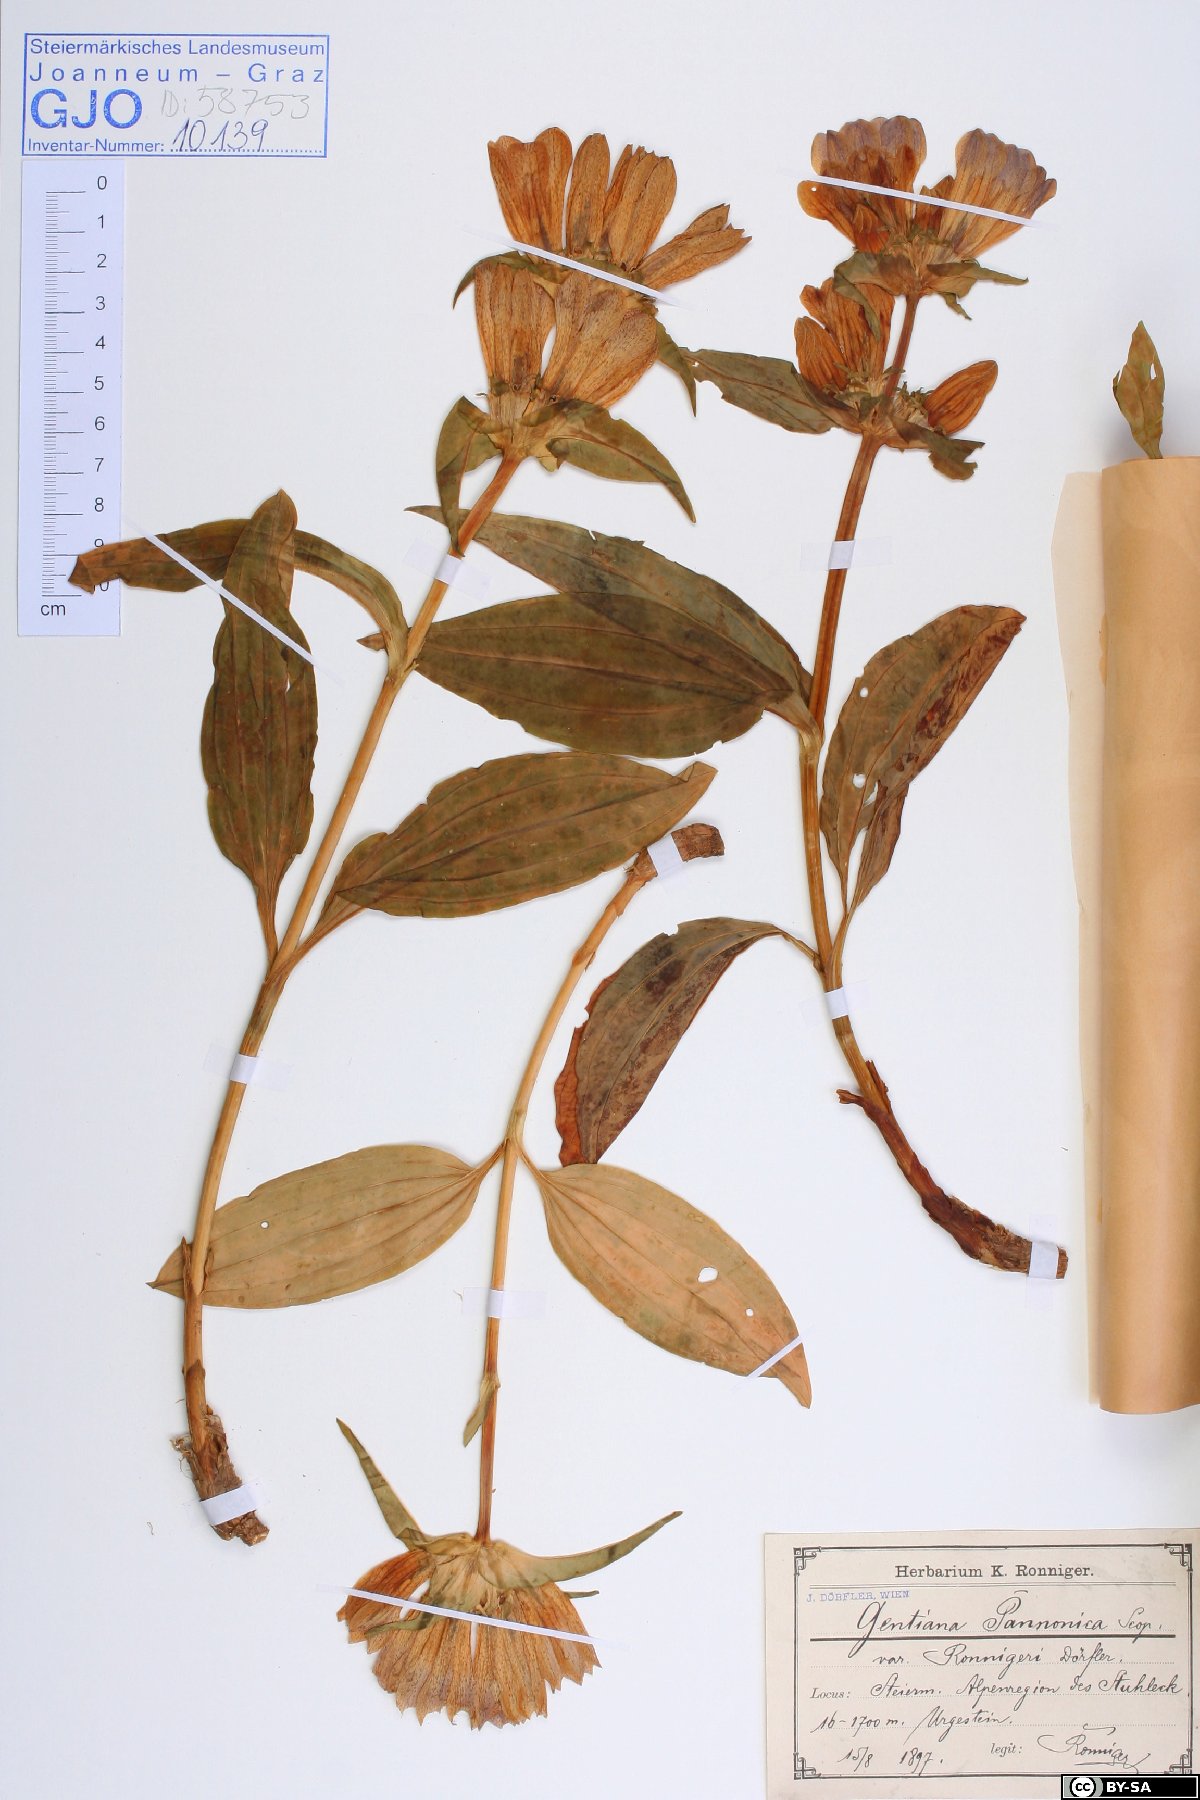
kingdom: Plantae
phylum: Tracheophyta
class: Magnoliopsida
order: Gentianales
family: Gentianaceae
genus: Gentiana
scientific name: Gentiana pannonica
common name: Hungarian gentian
